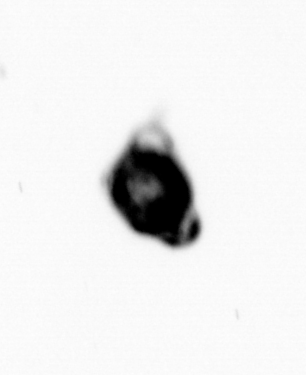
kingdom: Chromista
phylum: Foraminifera
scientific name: Foraminifera
